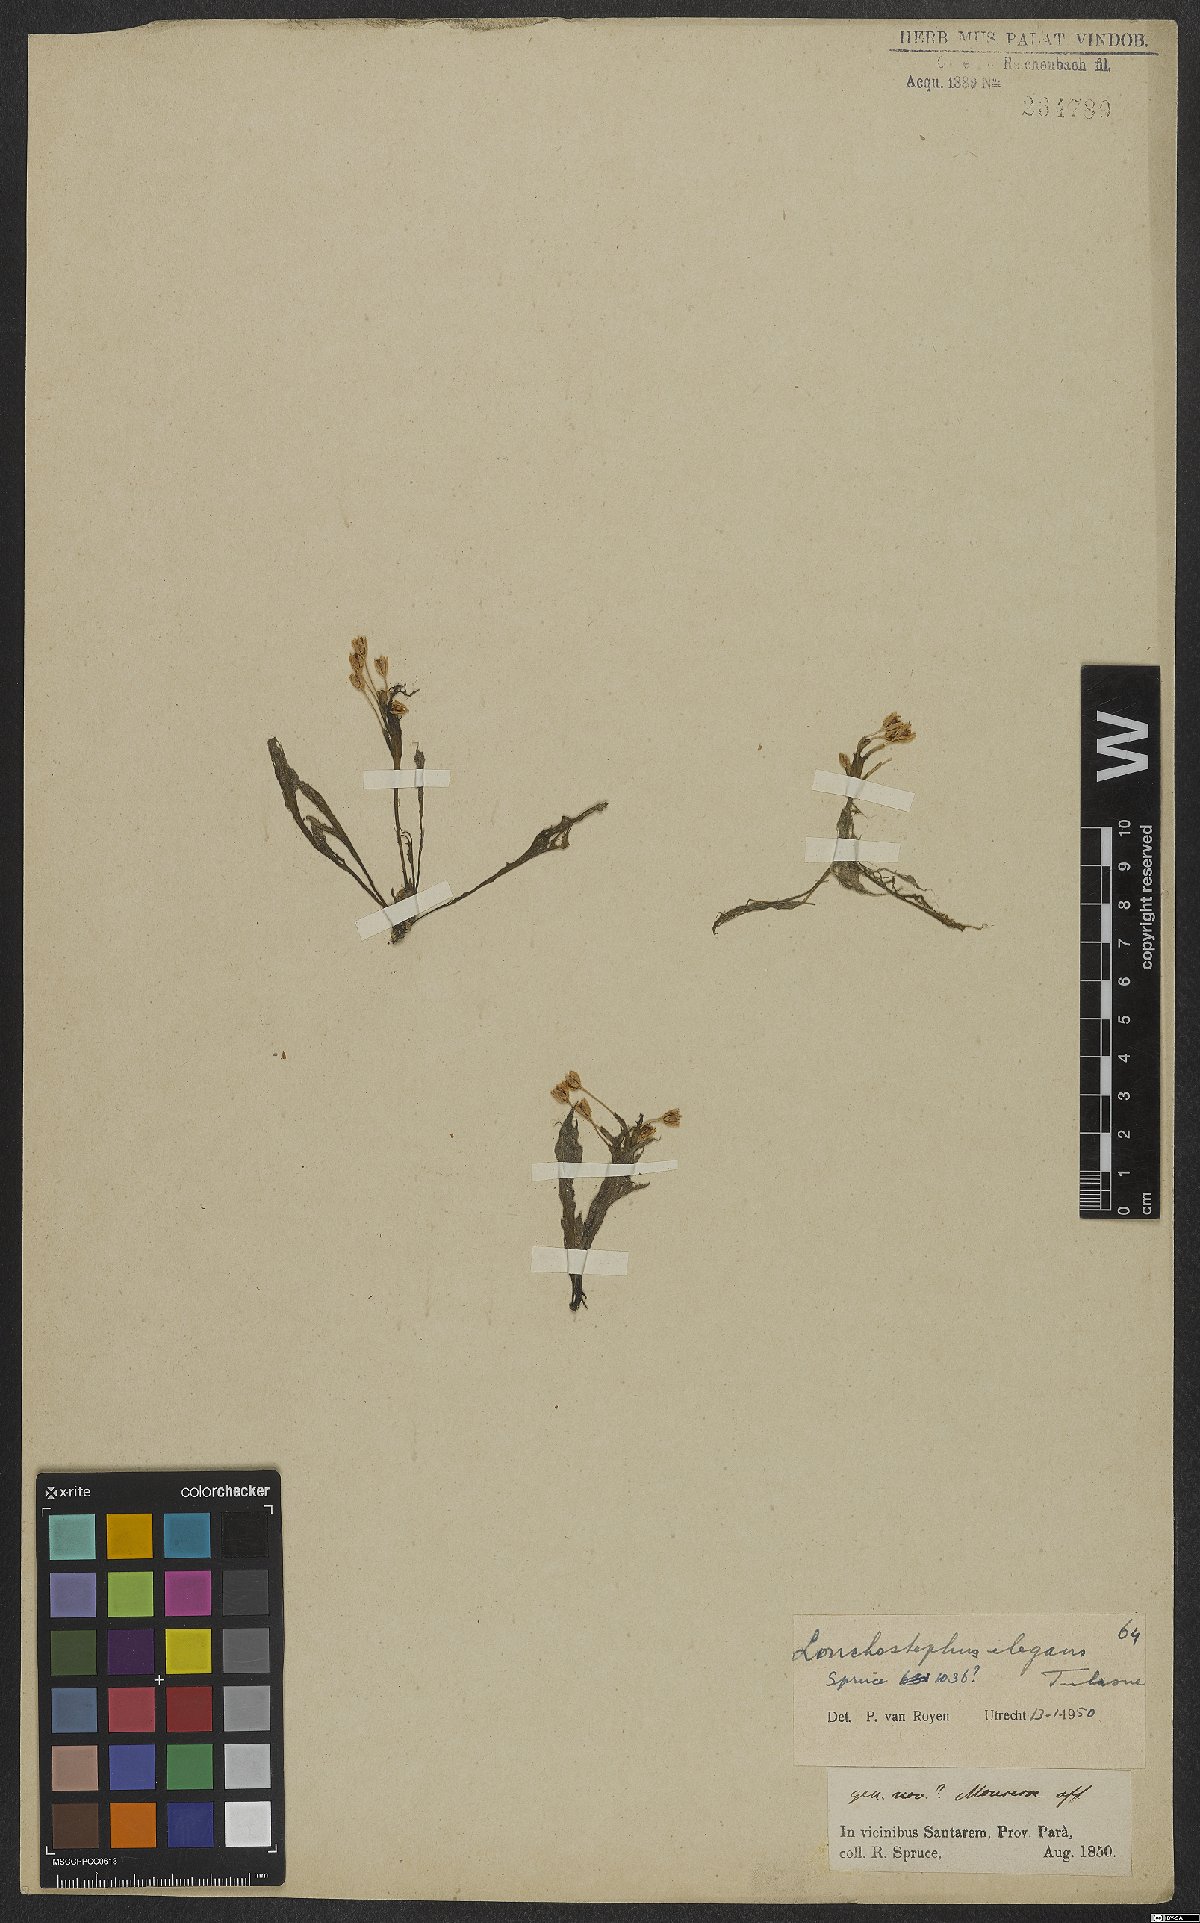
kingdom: Plantae
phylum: Tracheophyta
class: Magnoliopsida
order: Malpighiales
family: Podostemaceae
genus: Lonchostephus
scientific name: Lonchostephus elegans
